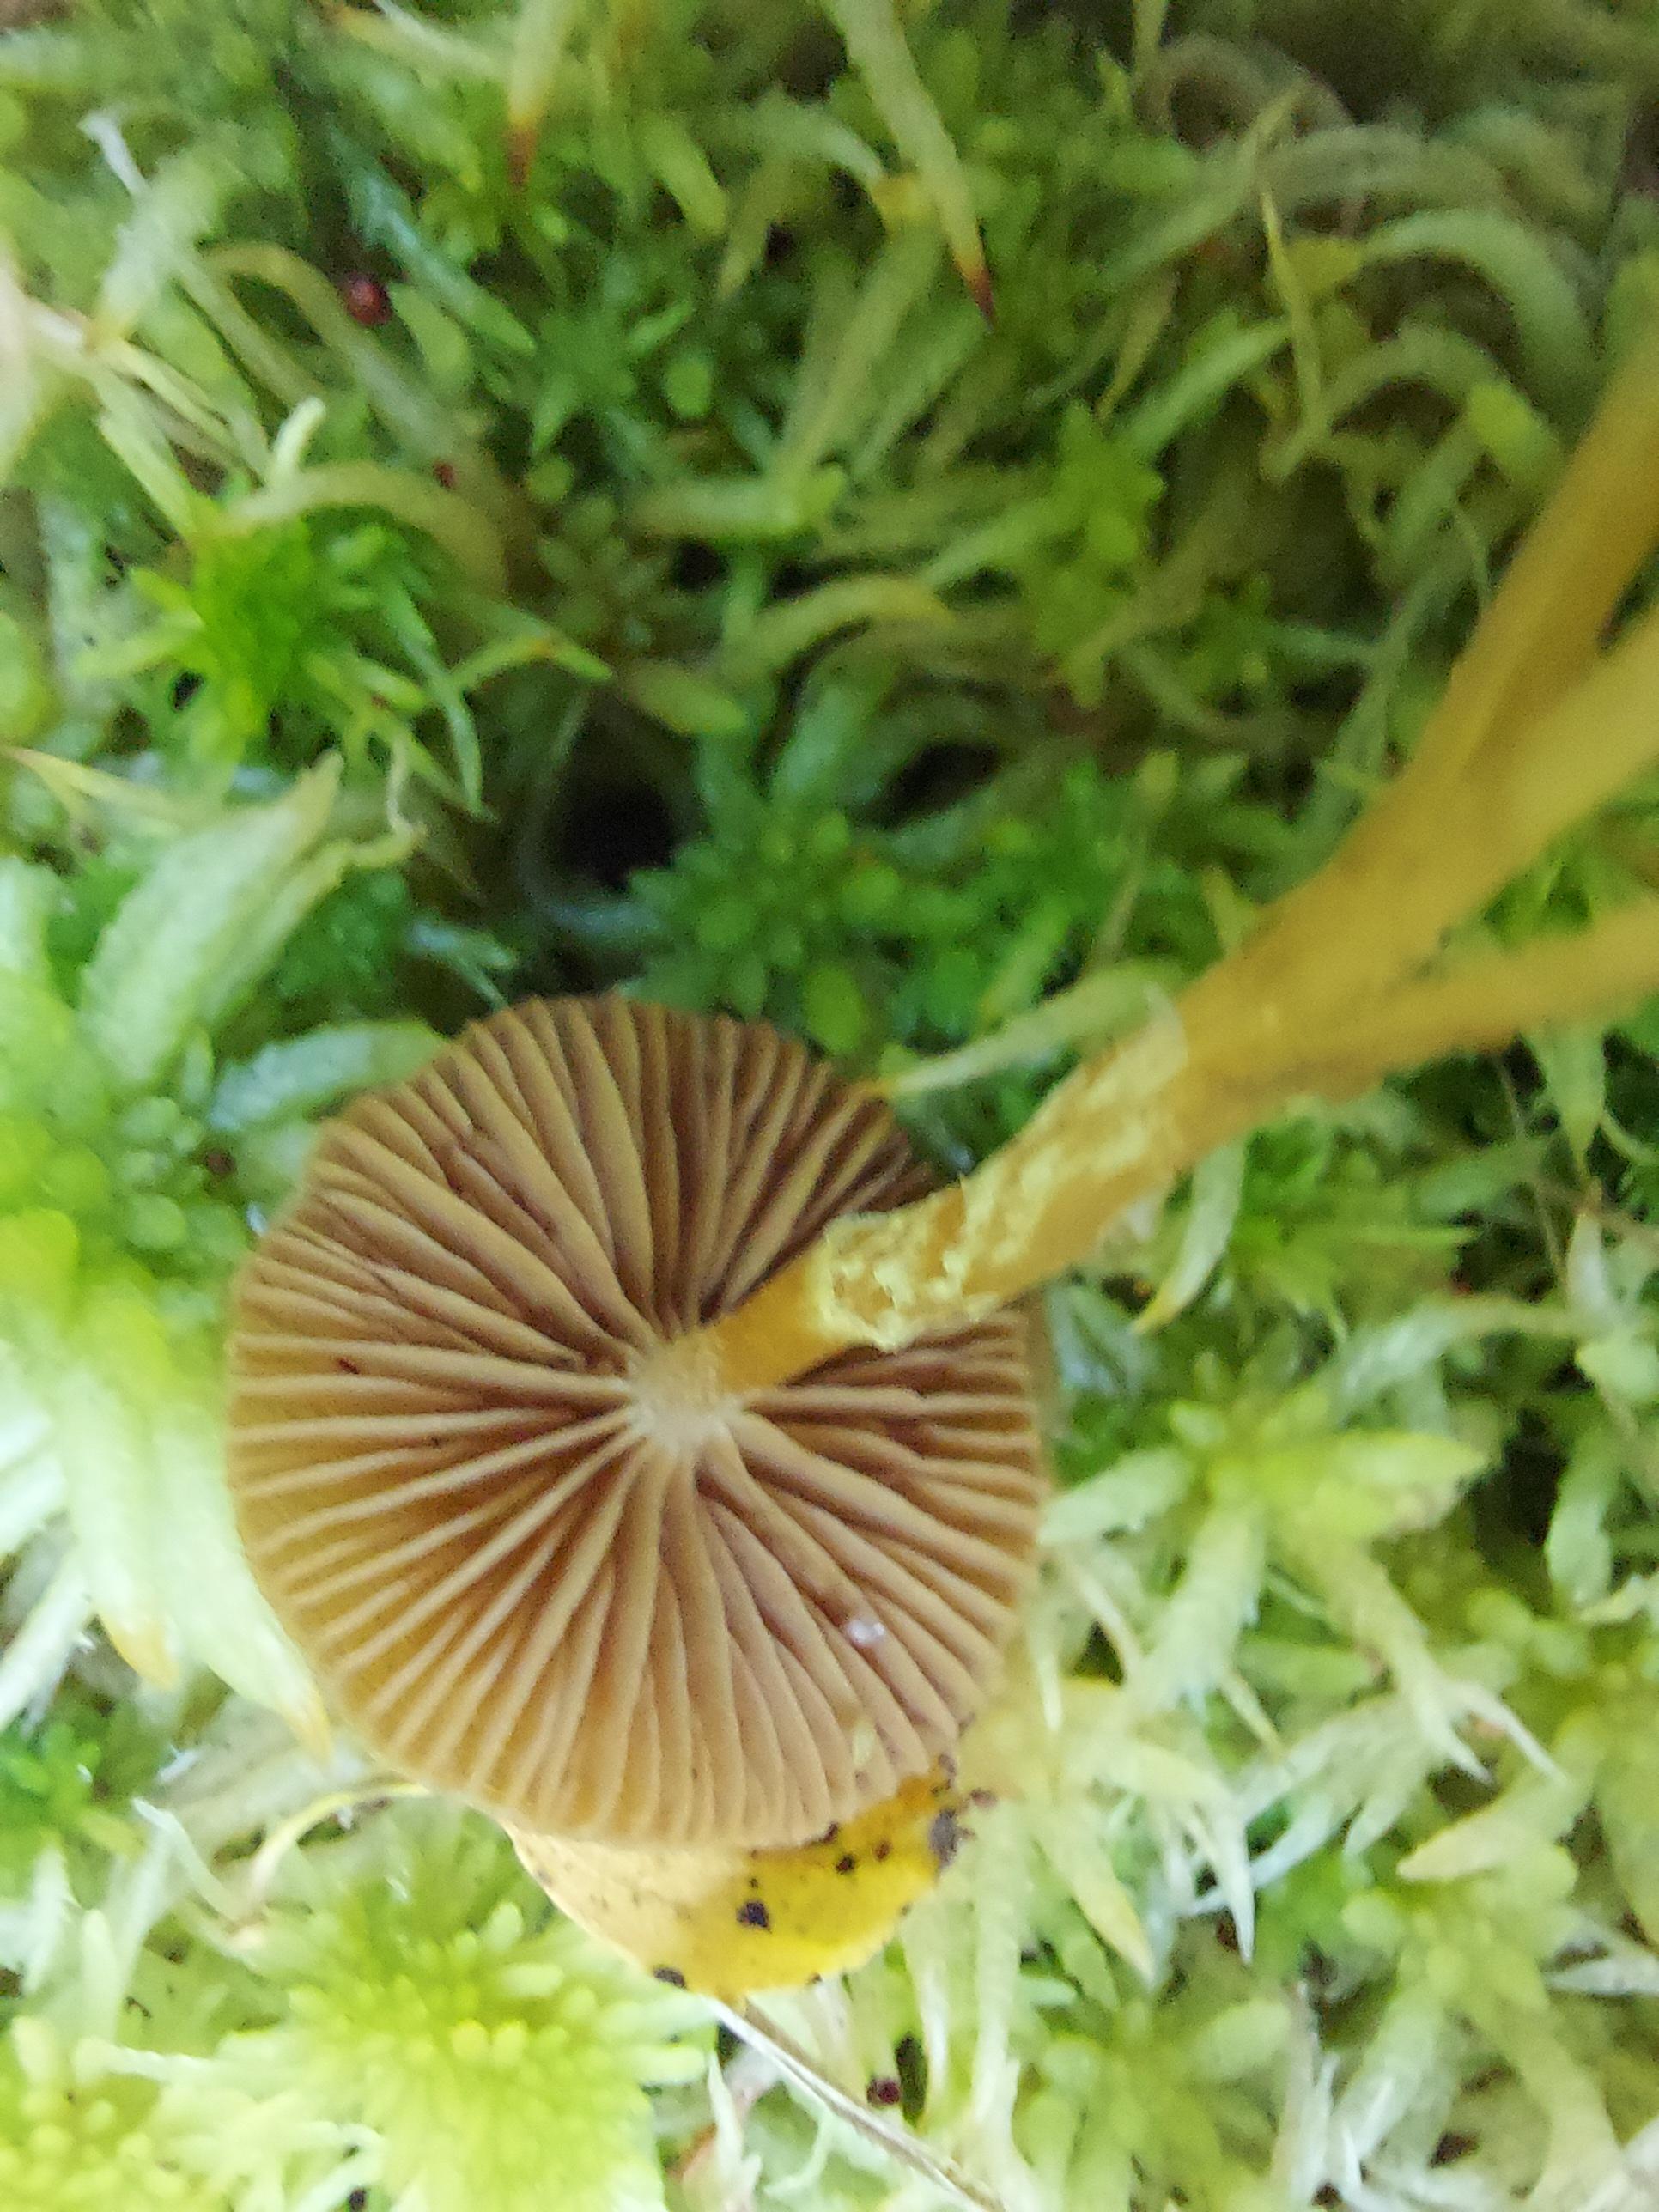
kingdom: Fungi
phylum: Basidiomycota
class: Agaricomycetes
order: Agaricales
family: Hymenogastraceae
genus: Galerina
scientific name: Galerina paludosa
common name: mose-hjelmhat
